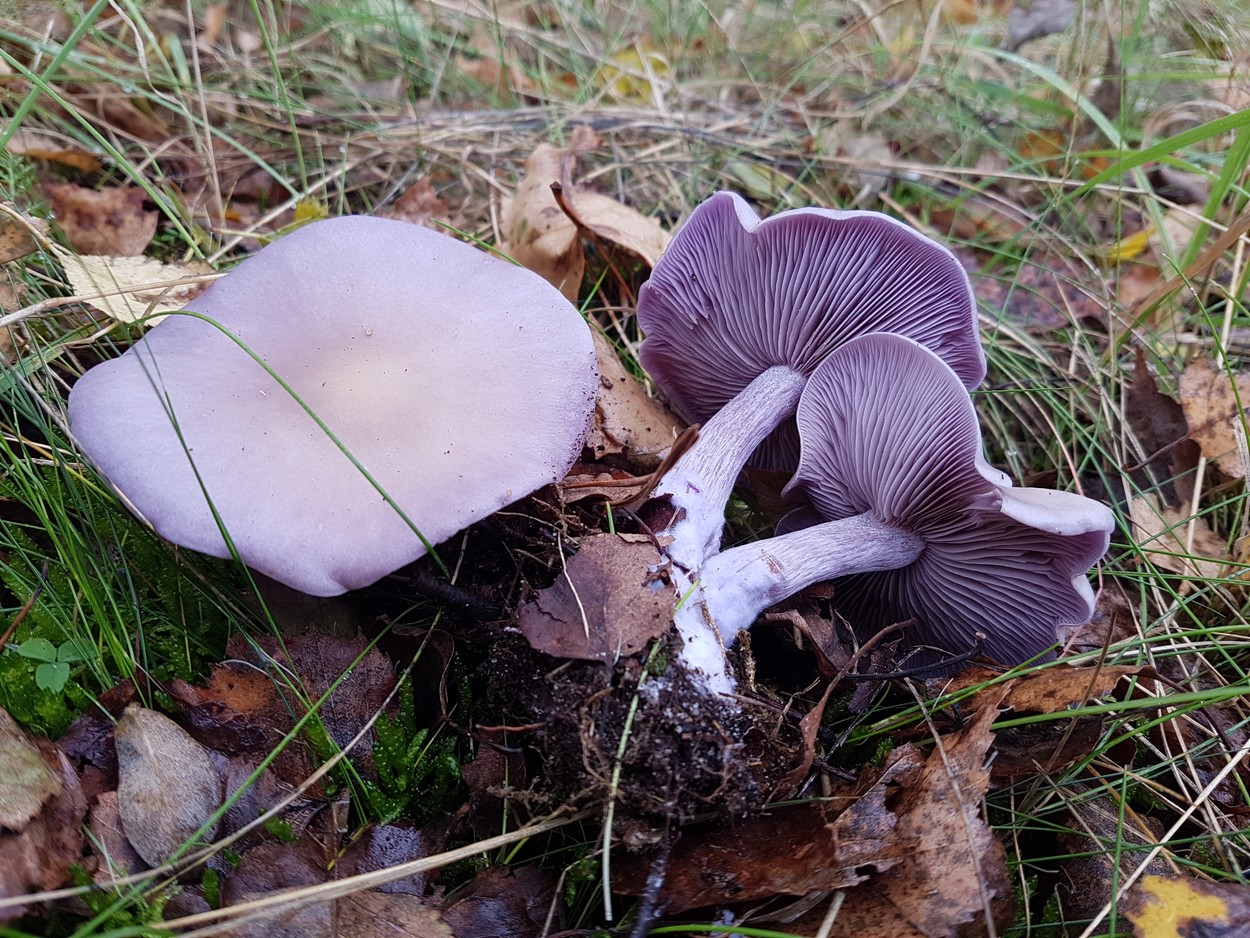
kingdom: Fungi
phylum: Basidiomycota
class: Agaricomycetes
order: Agaricales
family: Tricholomataceae
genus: Lepista
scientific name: Lepista nuda
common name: violet hekseringshat
